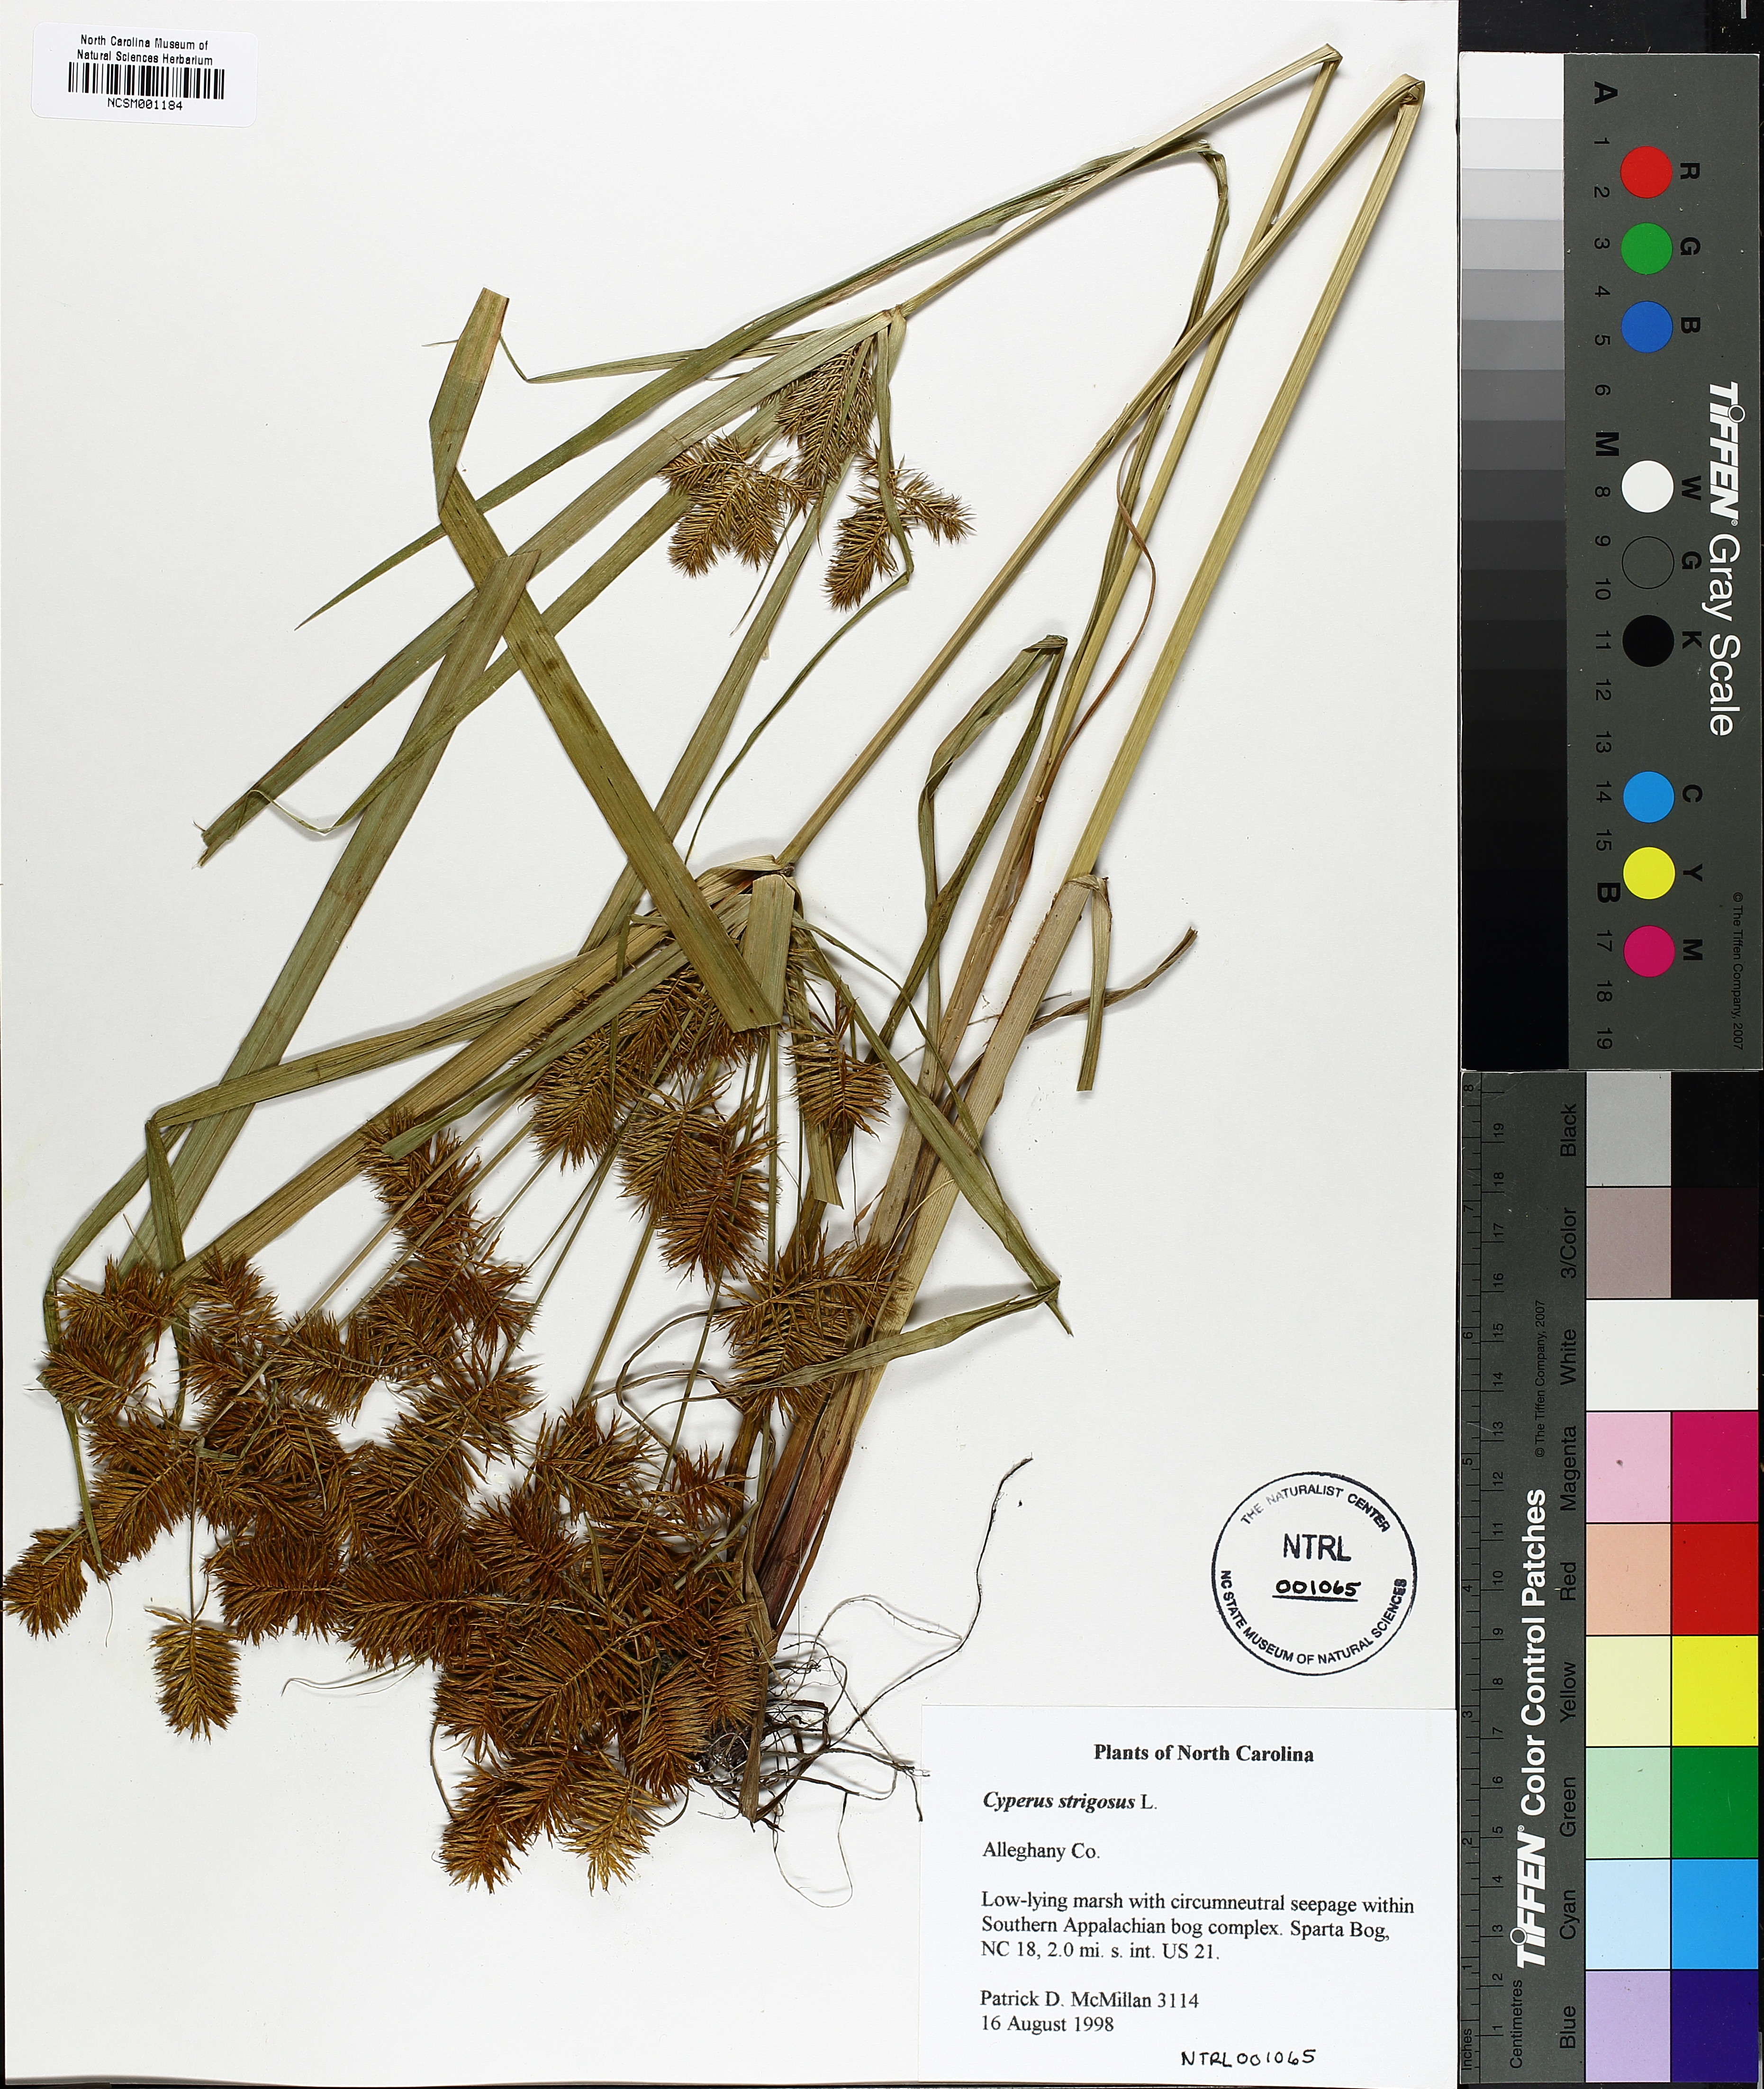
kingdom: Plantae
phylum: Tracheophyta
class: Liliopsida
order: Poales
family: Cyperaceae
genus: Cyperus
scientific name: Cyperus strigosus
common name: False nutsedge
